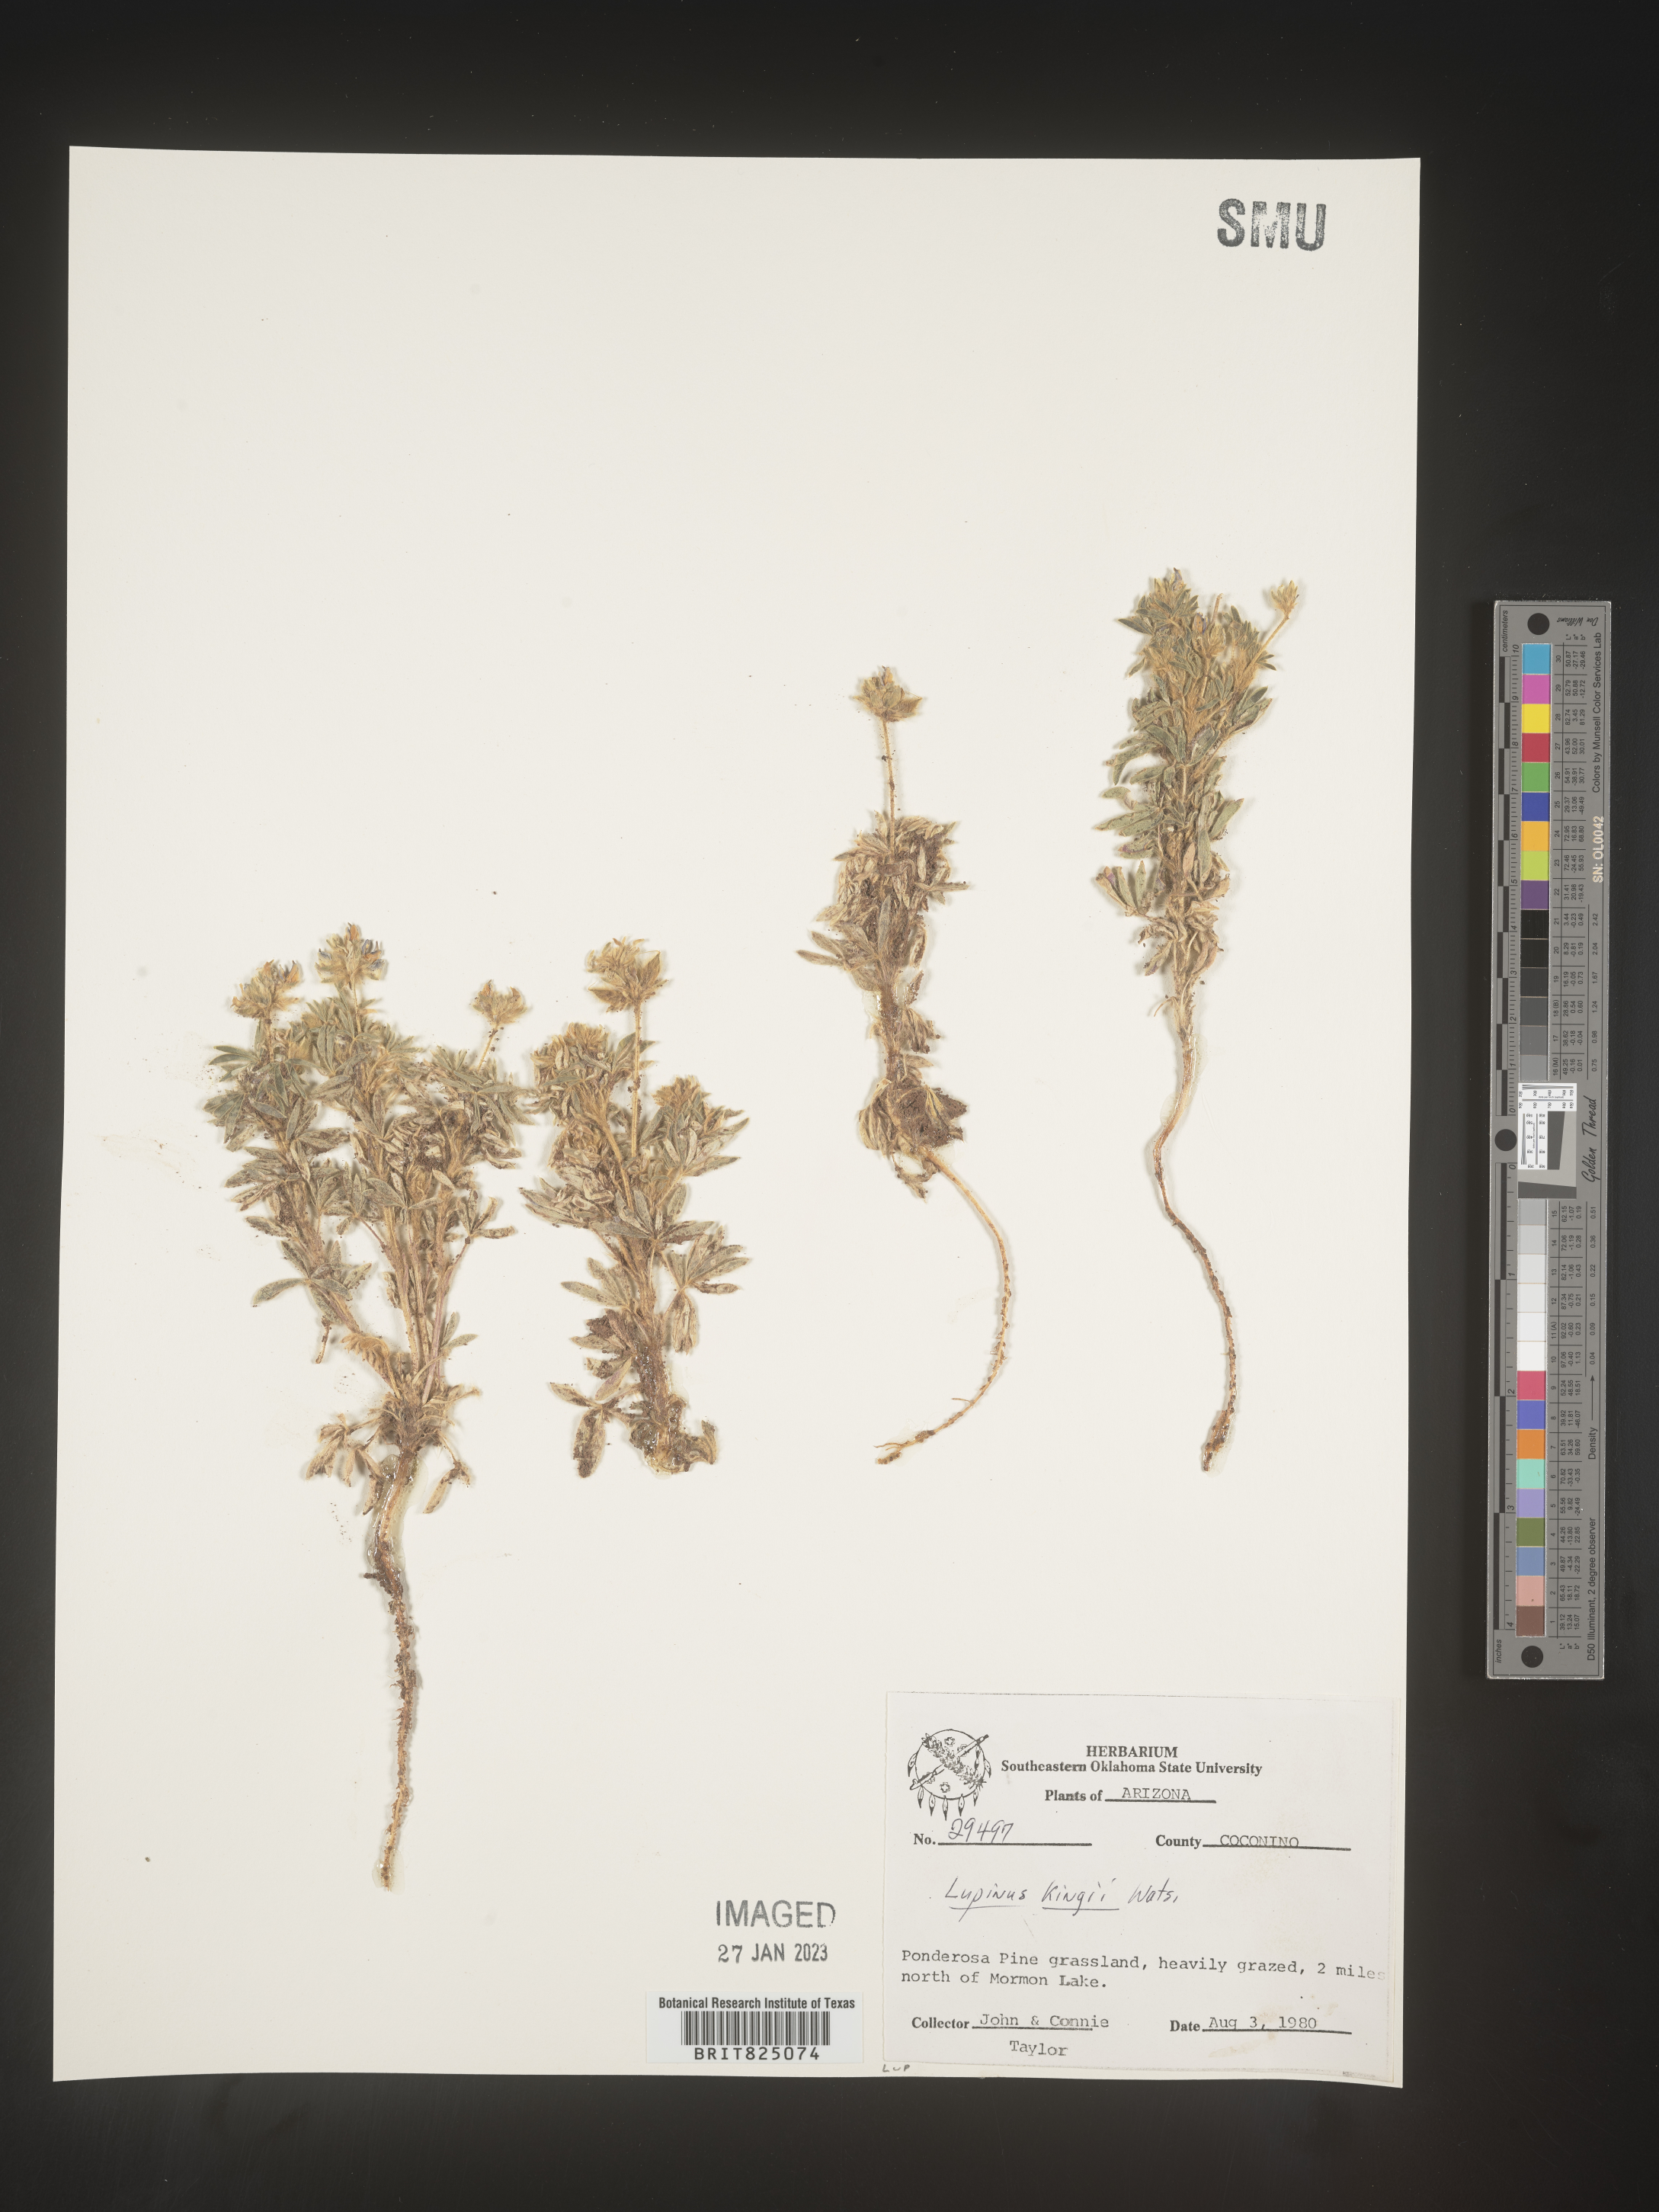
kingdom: Plantae
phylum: Tracheophyta
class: Magnoliopsida
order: Fabales
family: Fabaceae
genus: Lupinus
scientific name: Lupinus
